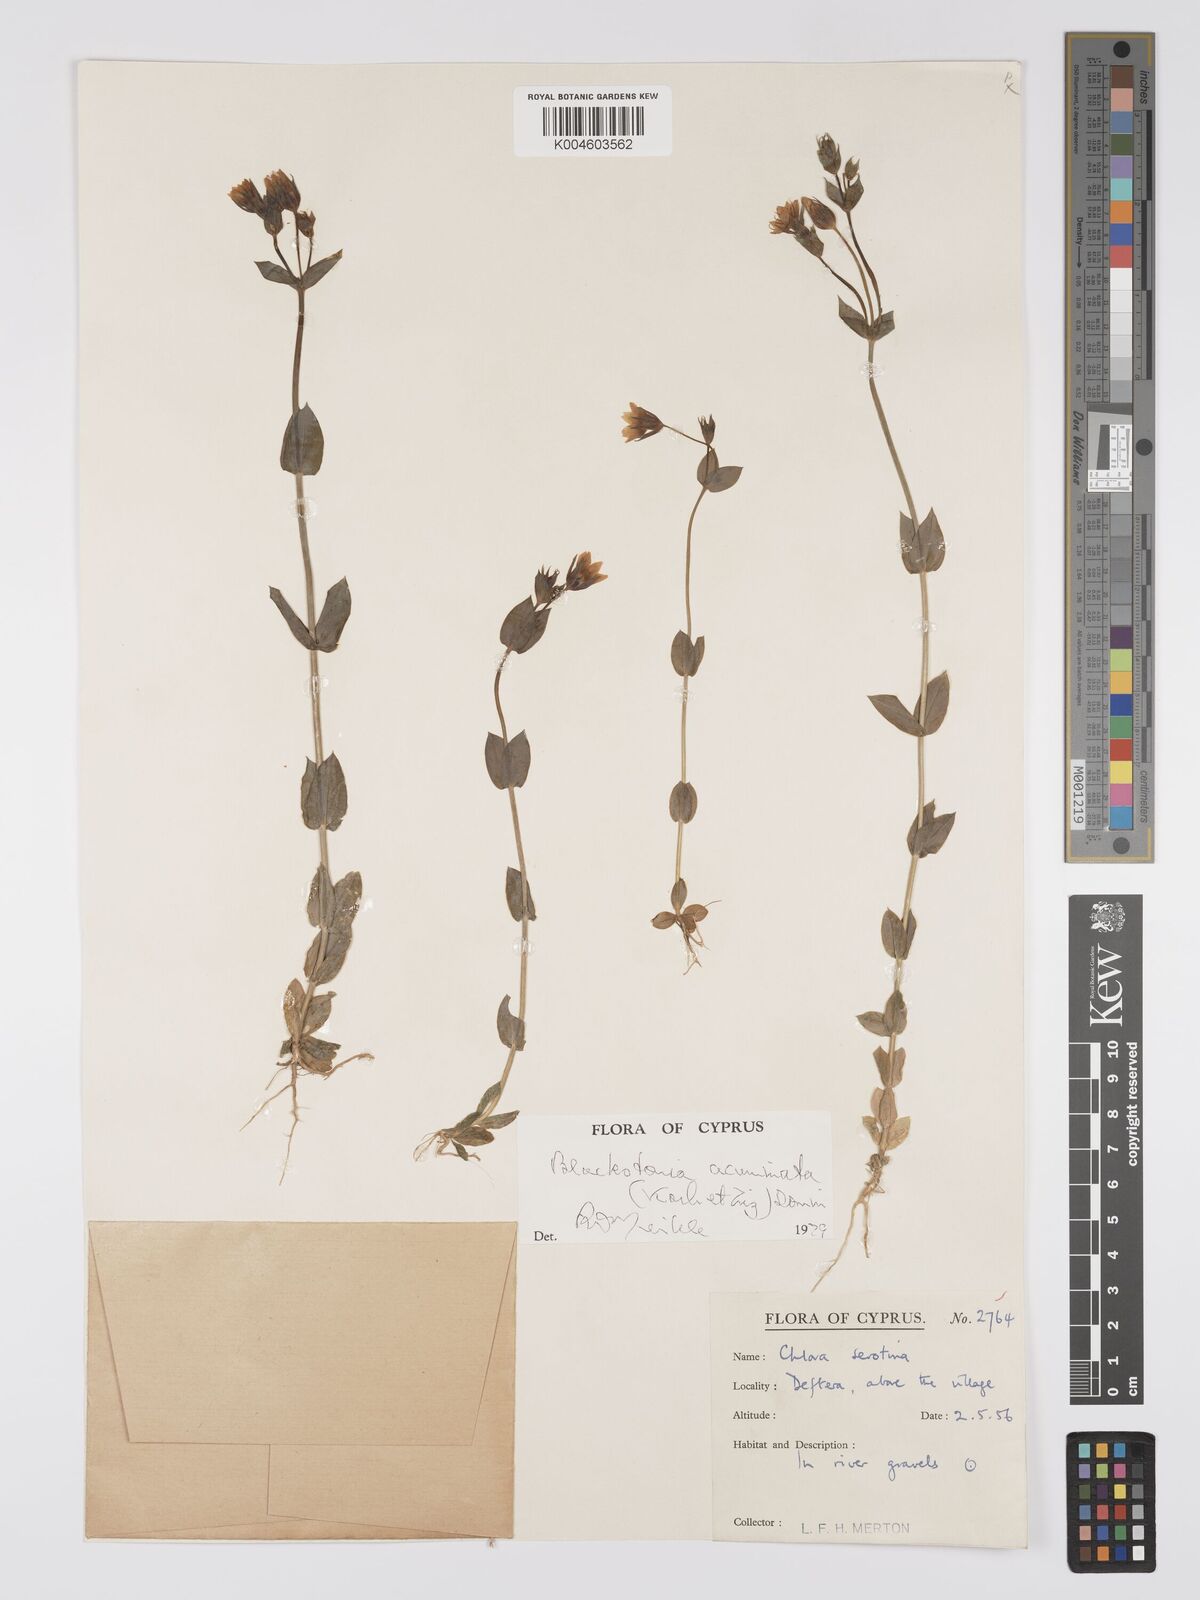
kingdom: Plantae
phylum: Tracheophyta
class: Magnoliopsida
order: Gentianales
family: Gentianaceae
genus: Blackstonia
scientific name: Blackstonia acuminata
